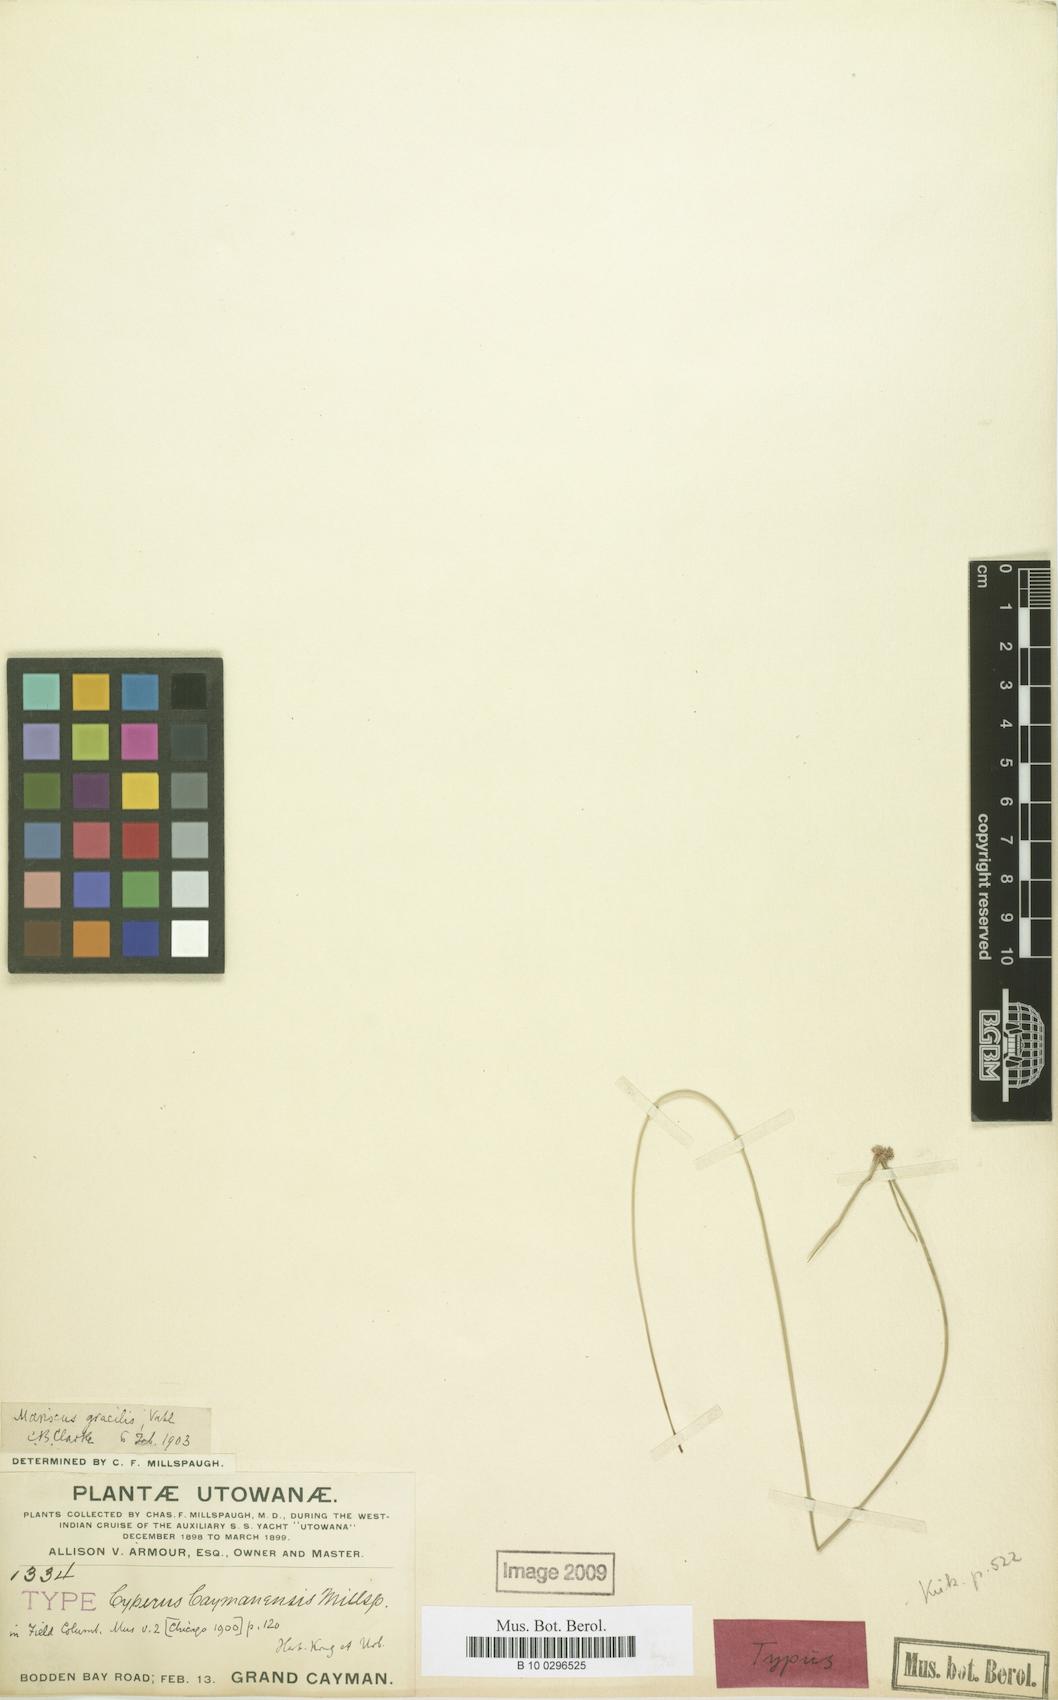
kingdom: Plantae
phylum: Tracheophyta
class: Liliopsida
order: Poales
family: Cyperaceae
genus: Cyperus
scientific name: Cyperus swartzii
